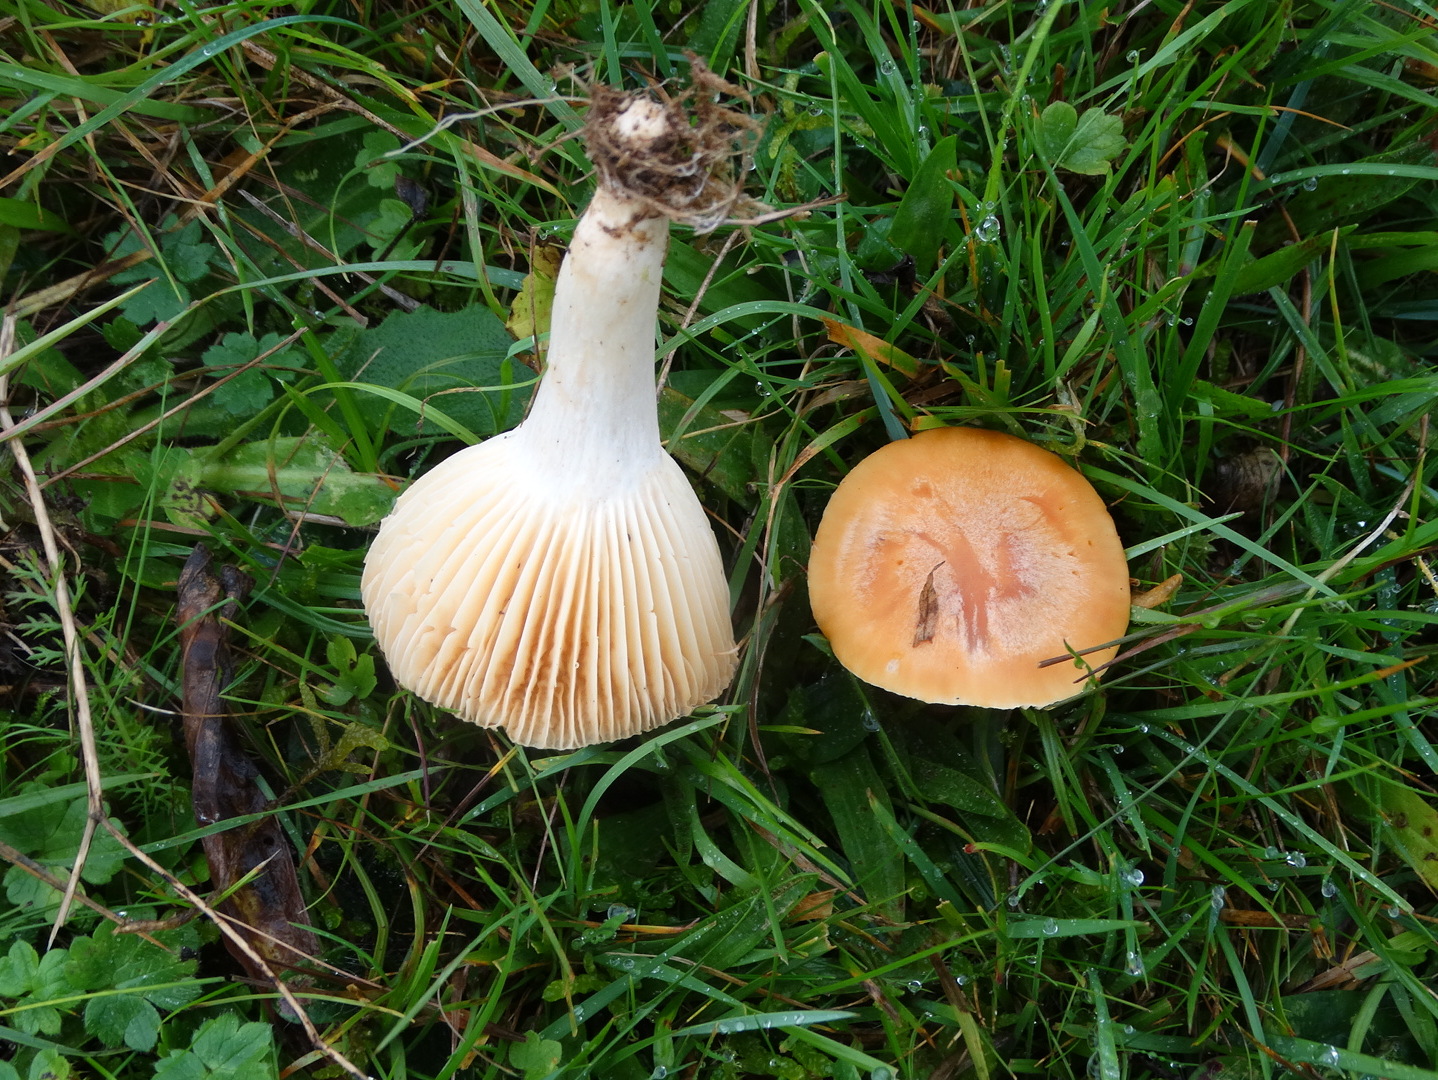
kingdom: Fungi
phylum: Basidiomycota
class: Agaricomycetes
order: Agaricales
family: Hygrophoraceae
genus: Cuphophyllus
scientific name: Cuphophyllus pratensis
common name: eng-vokshat
